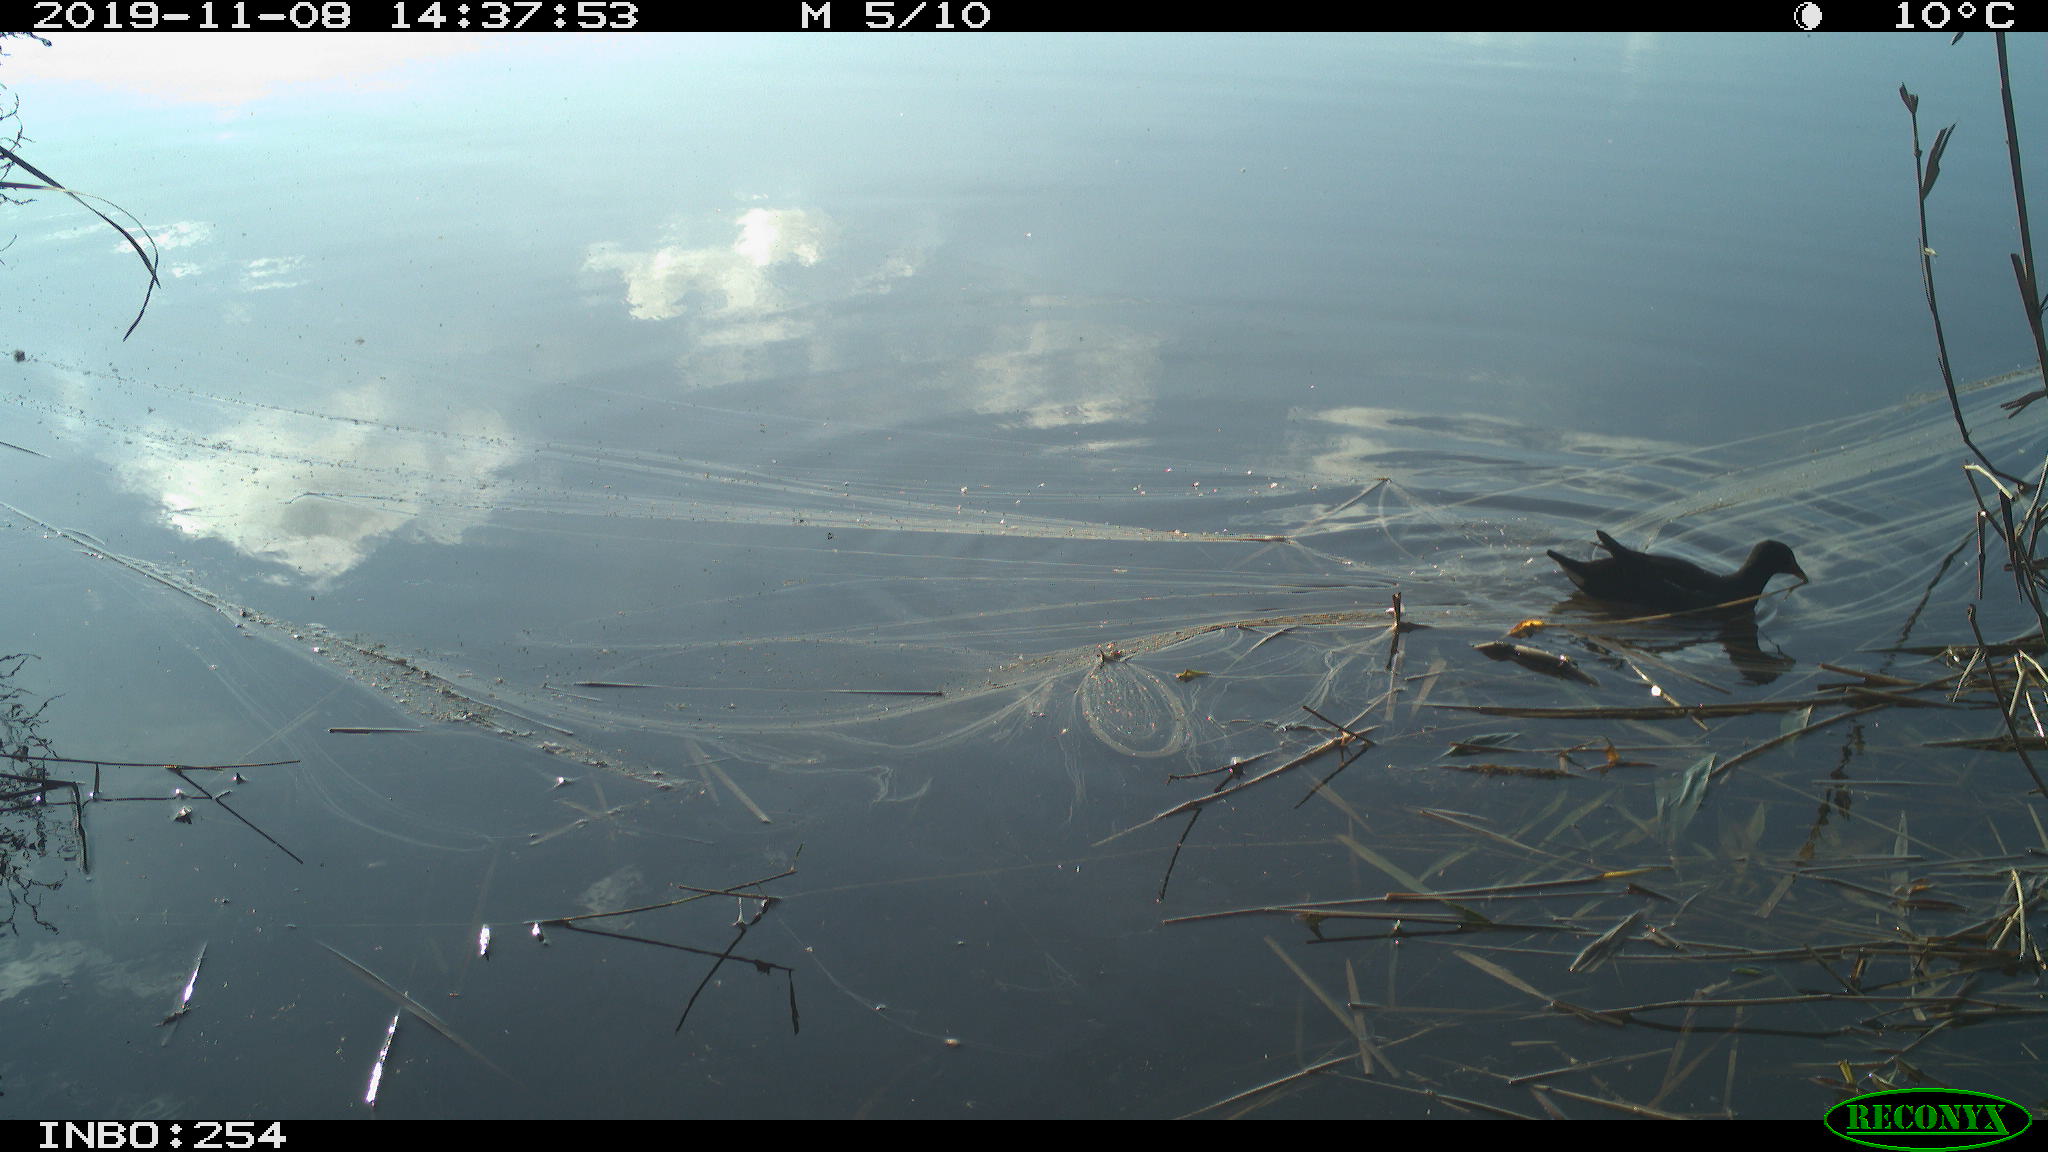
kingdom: Animalia
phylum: Chordata
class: Aves
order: Gruiformes
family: Rallidae
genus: Gallinula
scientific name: Gallinula chloropus
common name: Common moorhen
